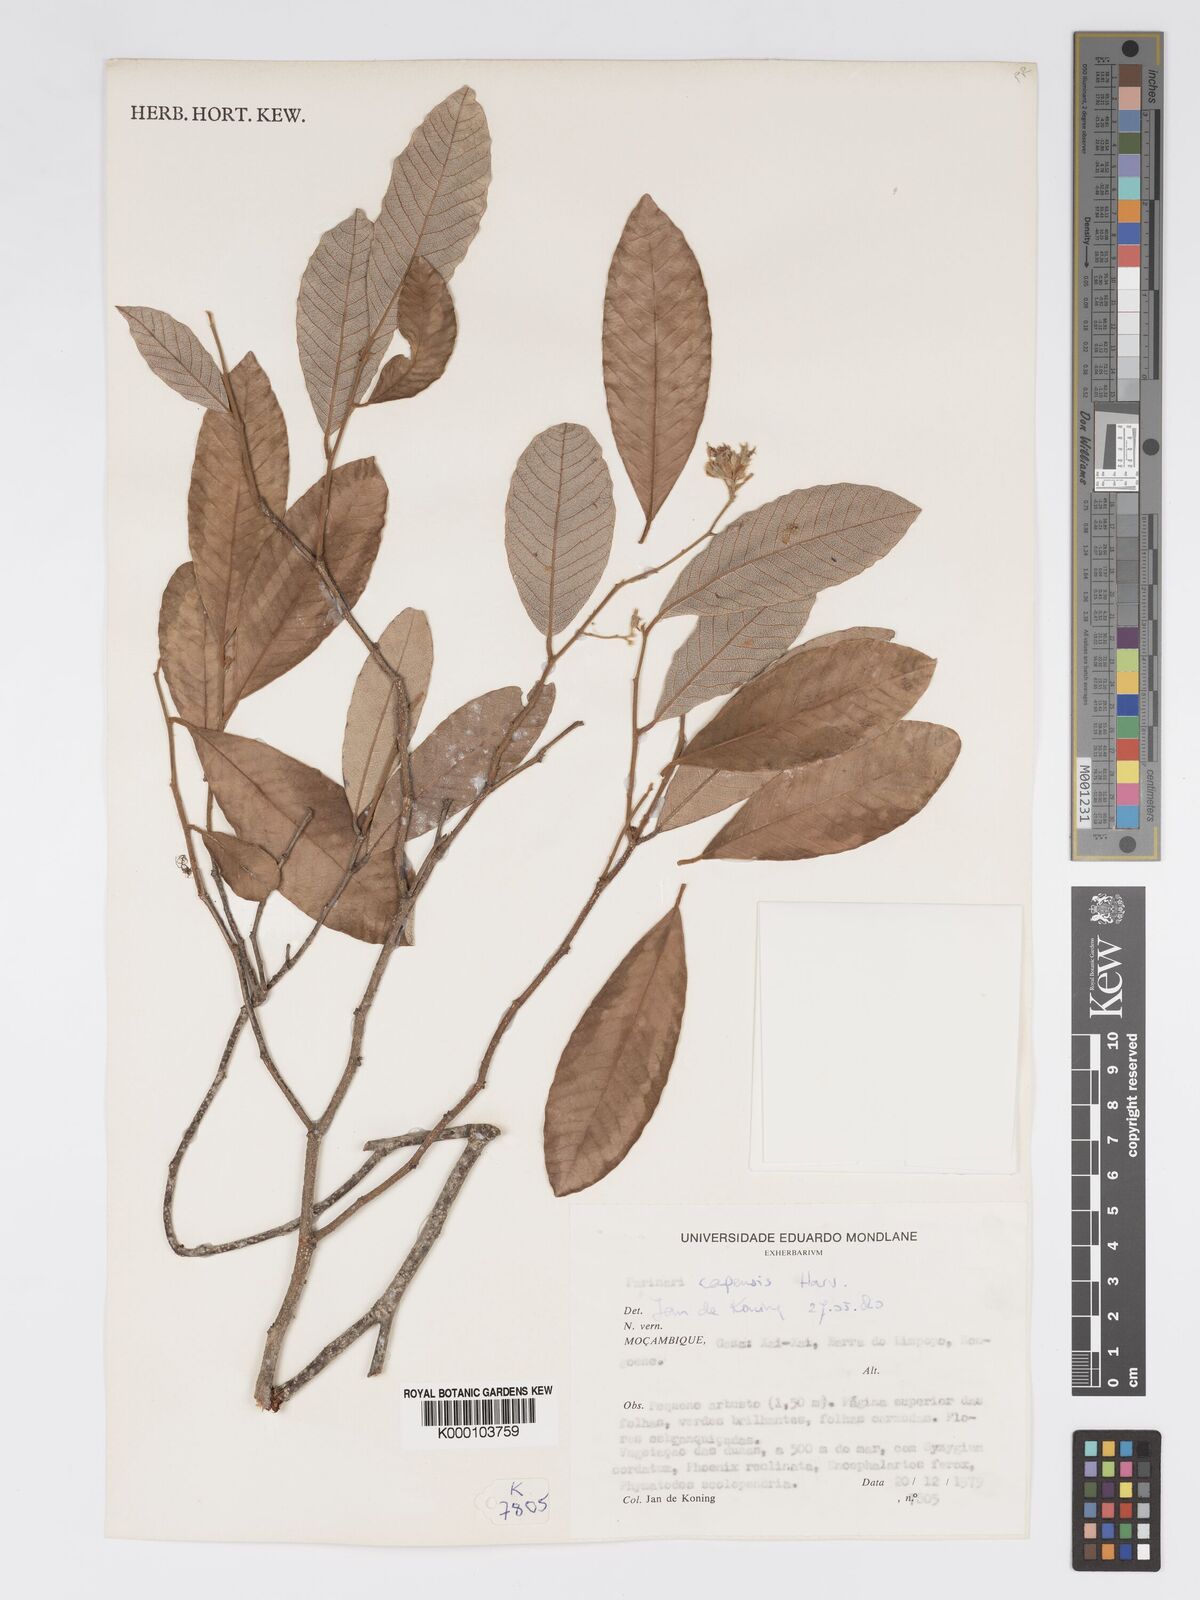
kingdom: Plantae
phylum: Tracheophyta
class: Magnoliopsida
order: Malpighiales
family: Chrysobalanaceae
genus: Parinari
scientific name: Parinari capensis
